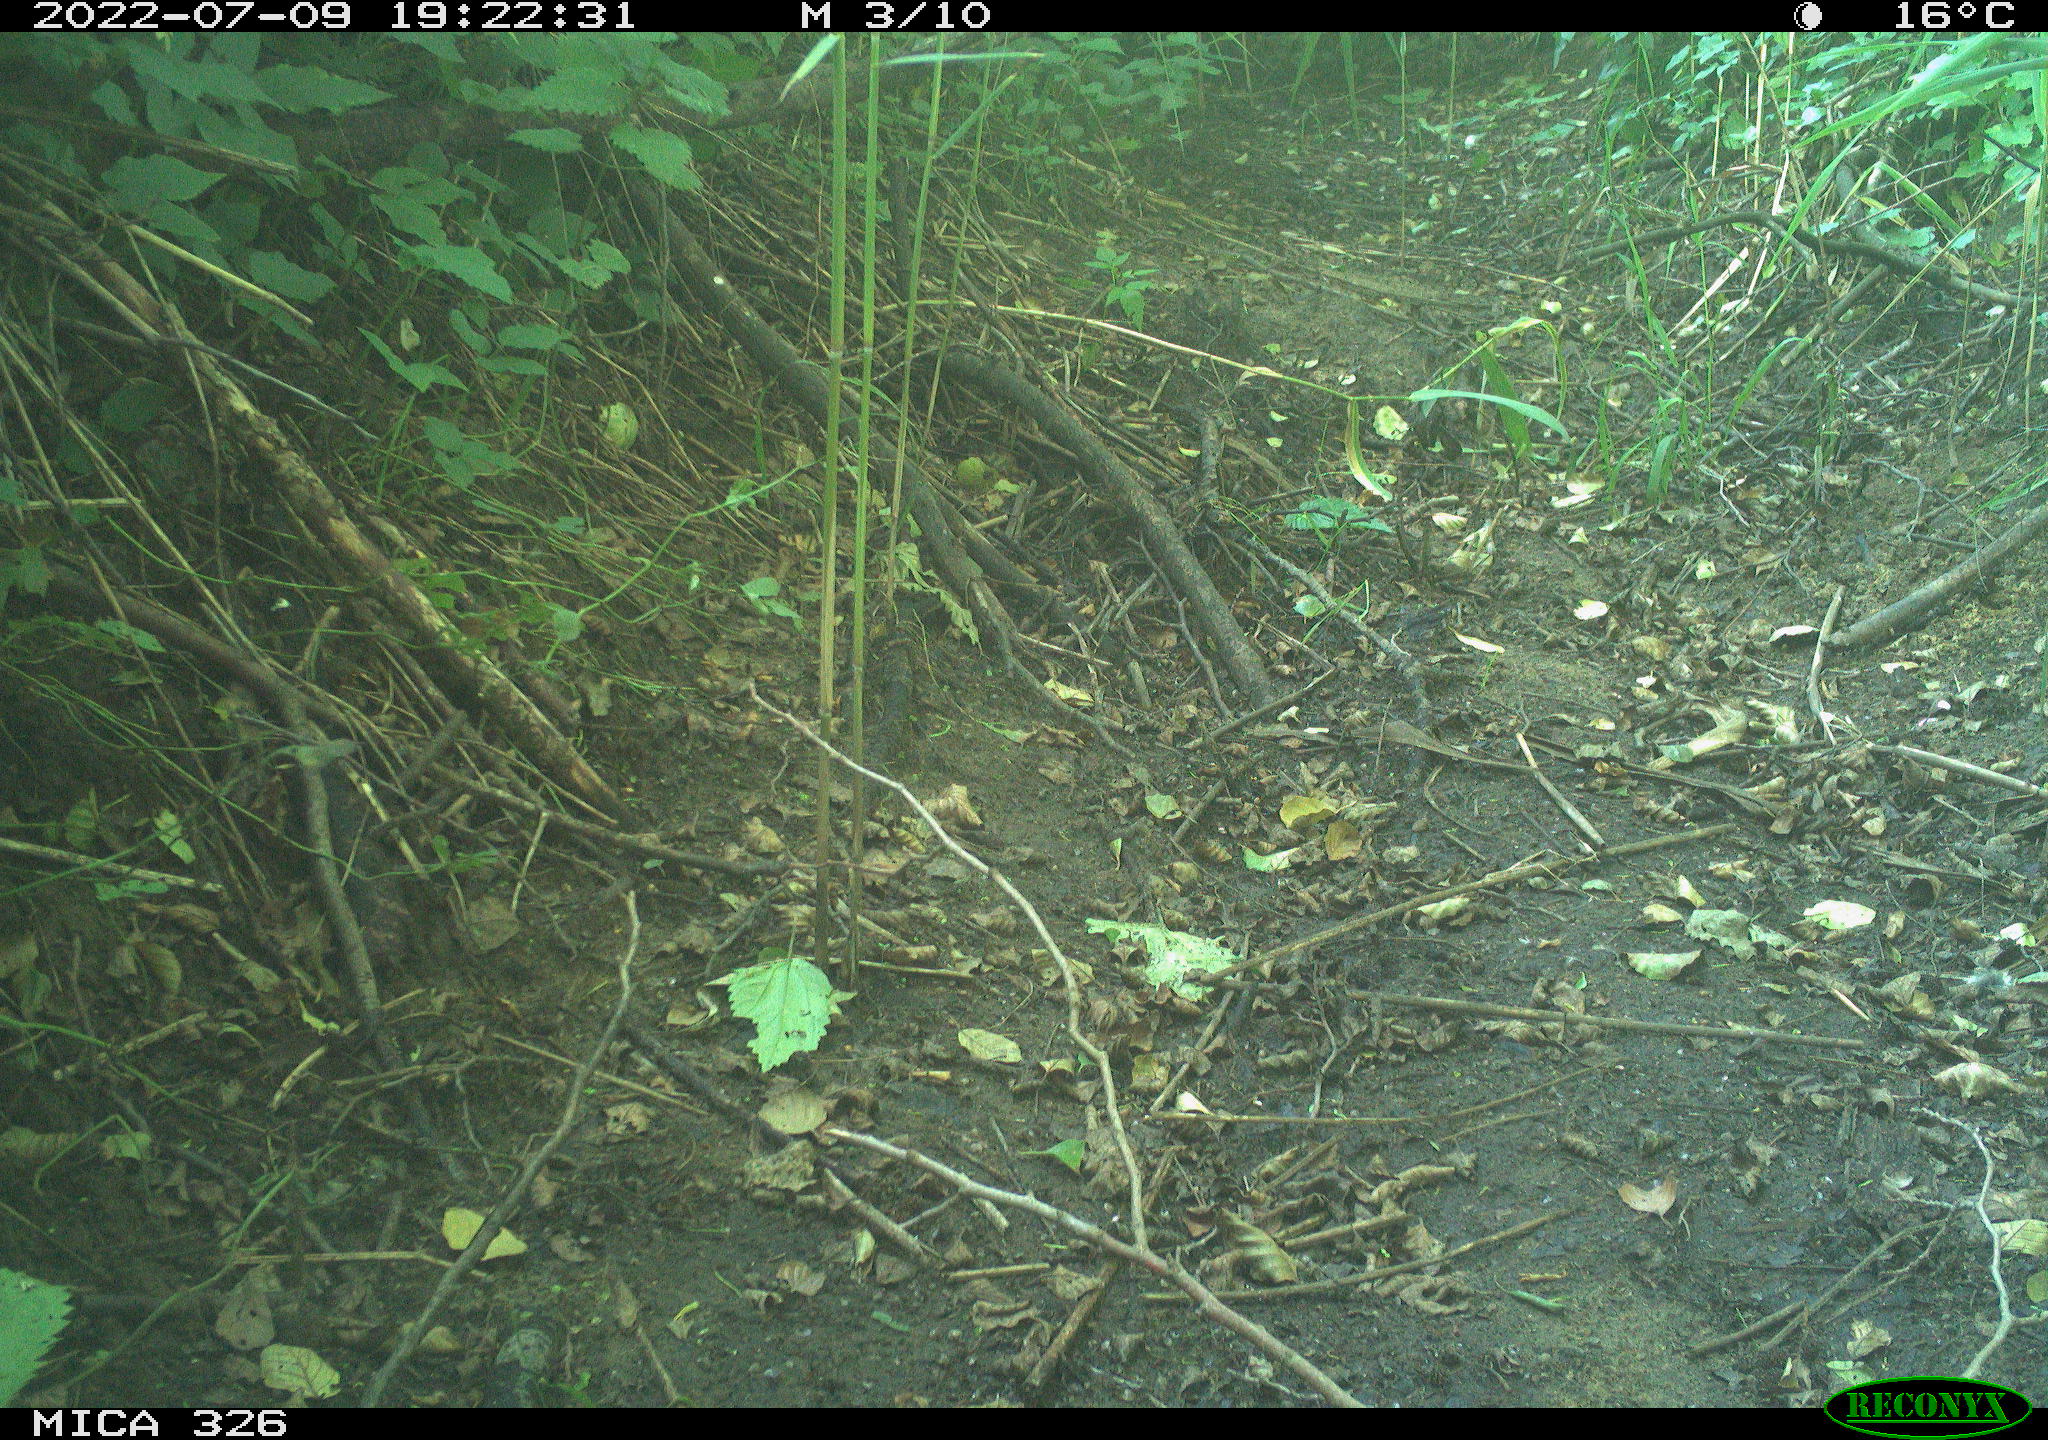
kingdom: Animalia
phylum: Chordata
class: Aves
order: Passeriformes
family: Turdidae
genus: Turdus
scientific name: Turdus philomelos
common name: Song thrush
